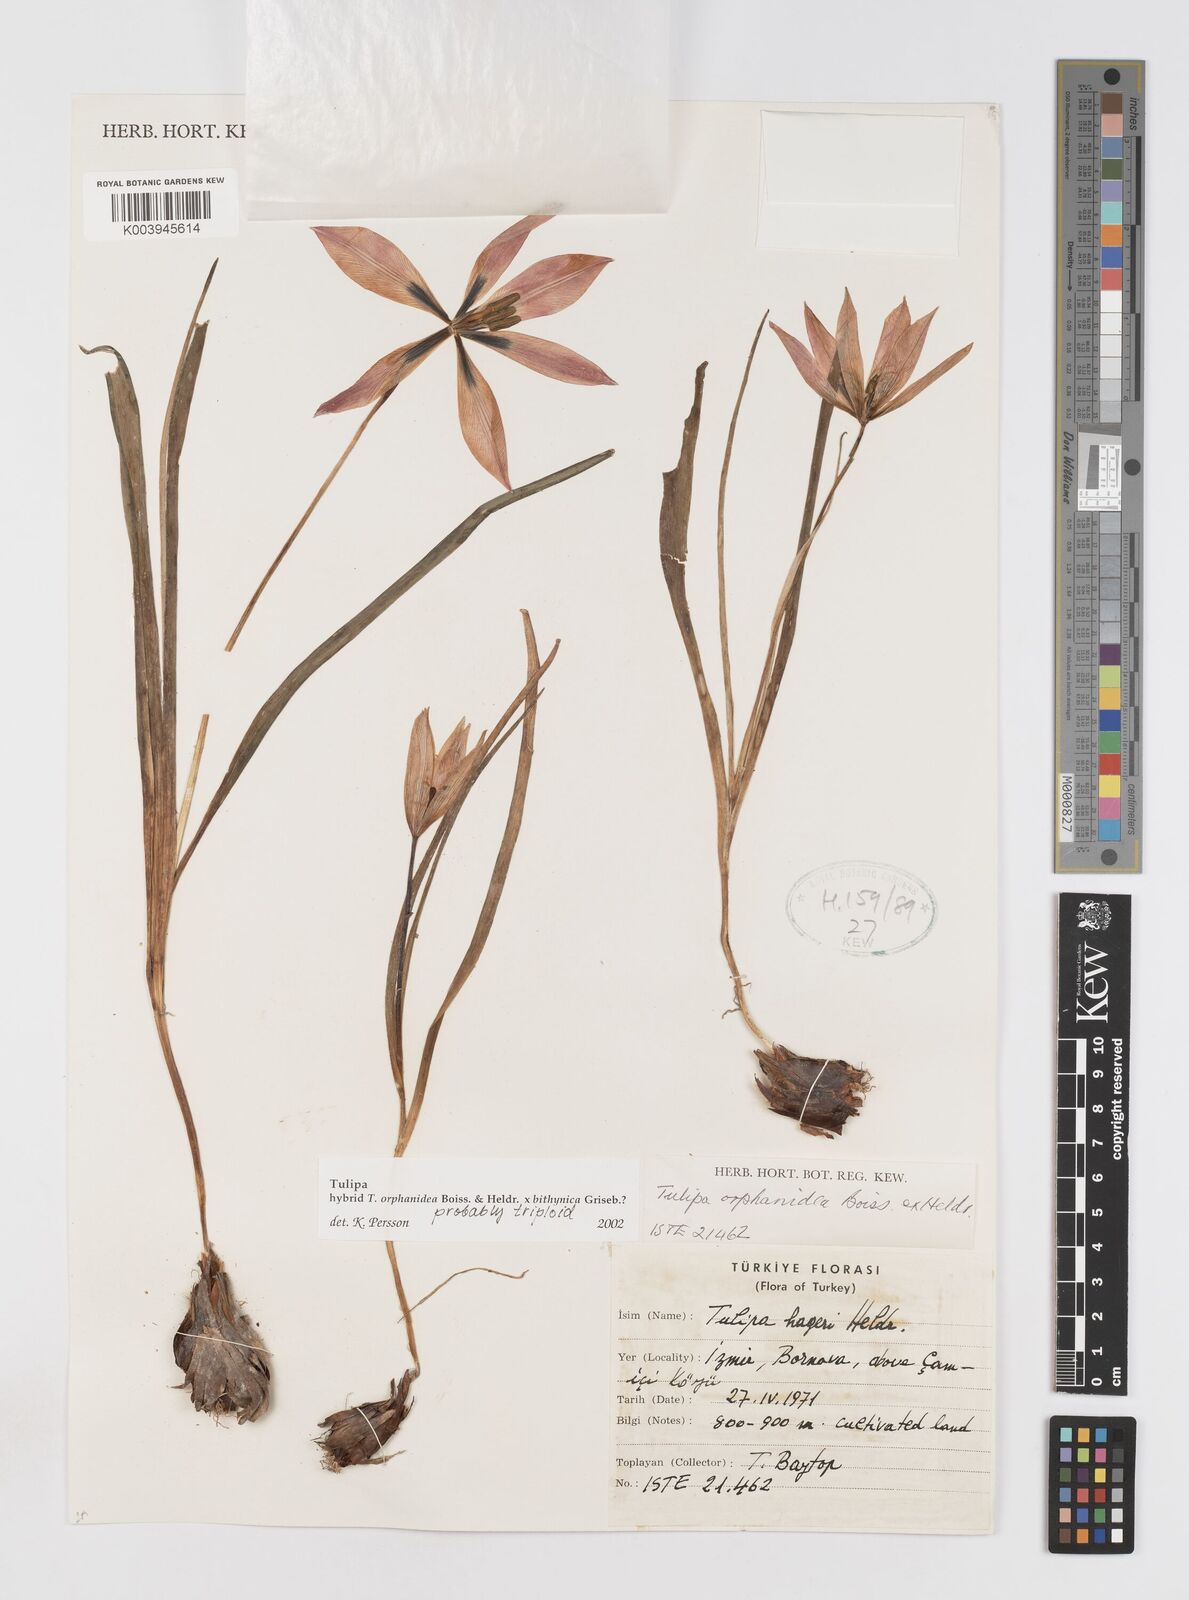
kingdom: Plantae
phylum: Tracheophyta
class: Liliopsida
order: Liliales
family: Liliaceae
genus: Tulipa
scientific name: Tulipa orphanidea
